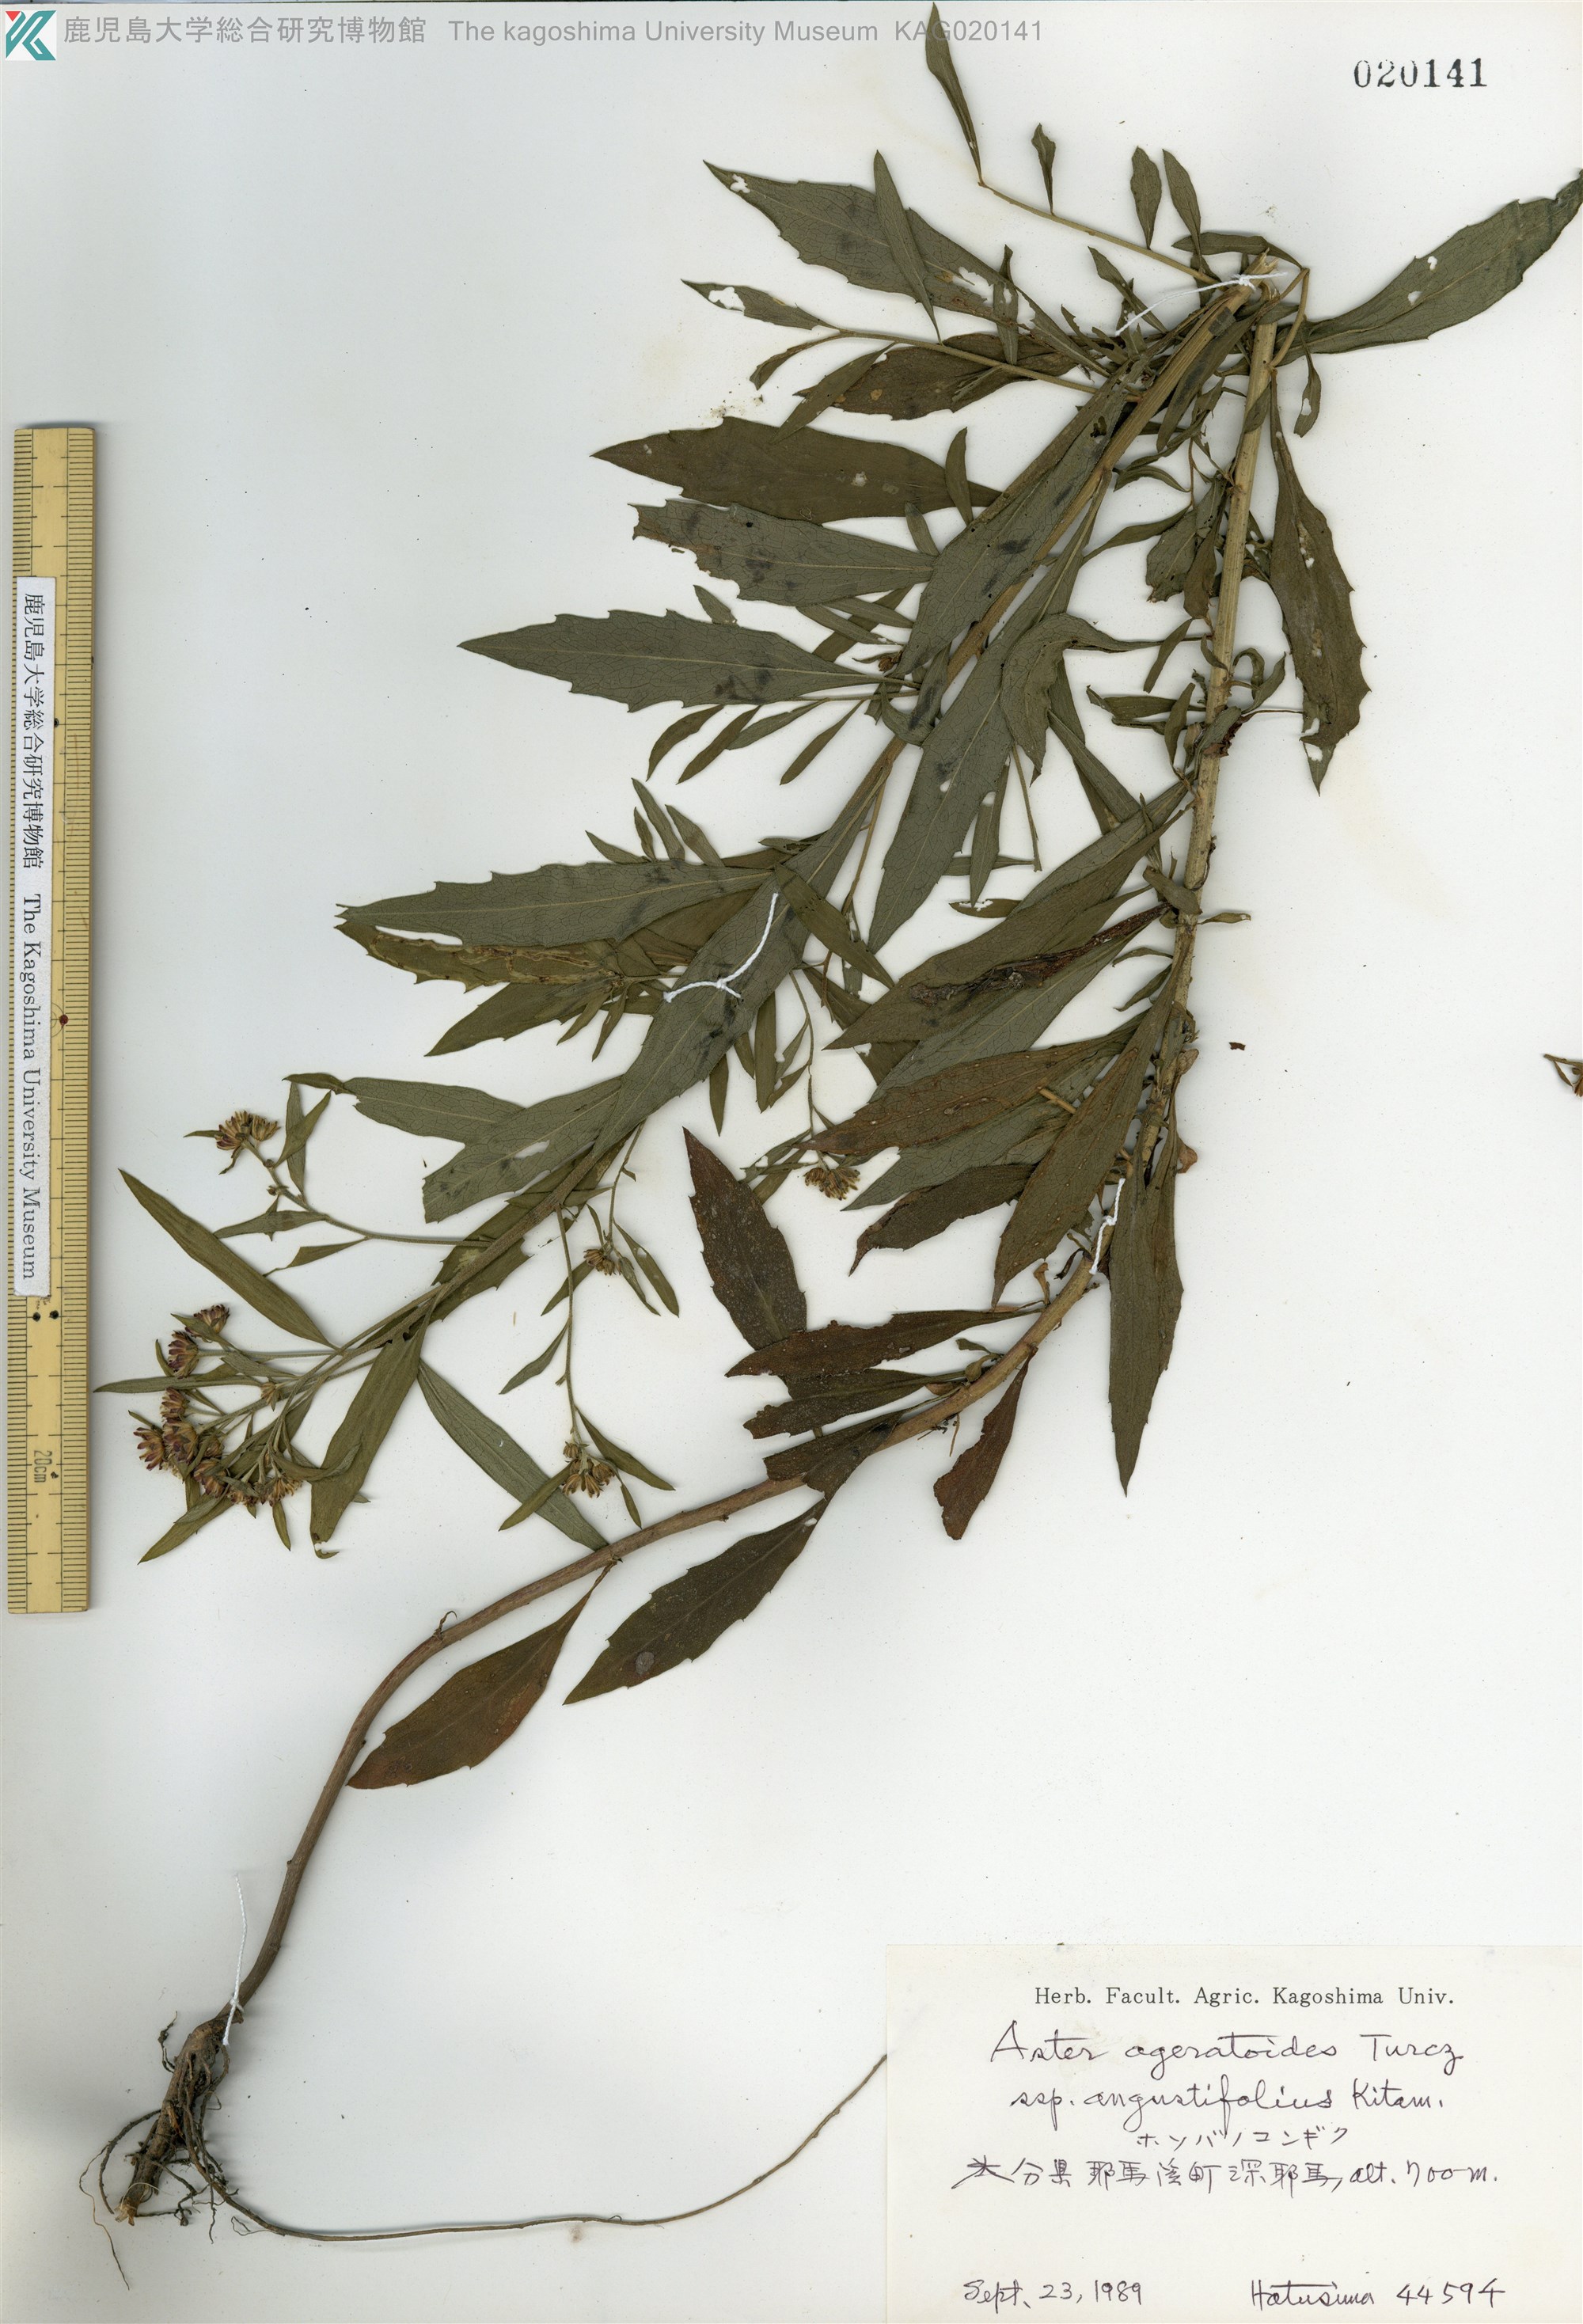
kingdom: Plantae
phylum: Tracheophyta
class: Magnoliopsida
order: Asterales
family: Asteraceae
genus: Aster
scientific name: Aster microcephalus
